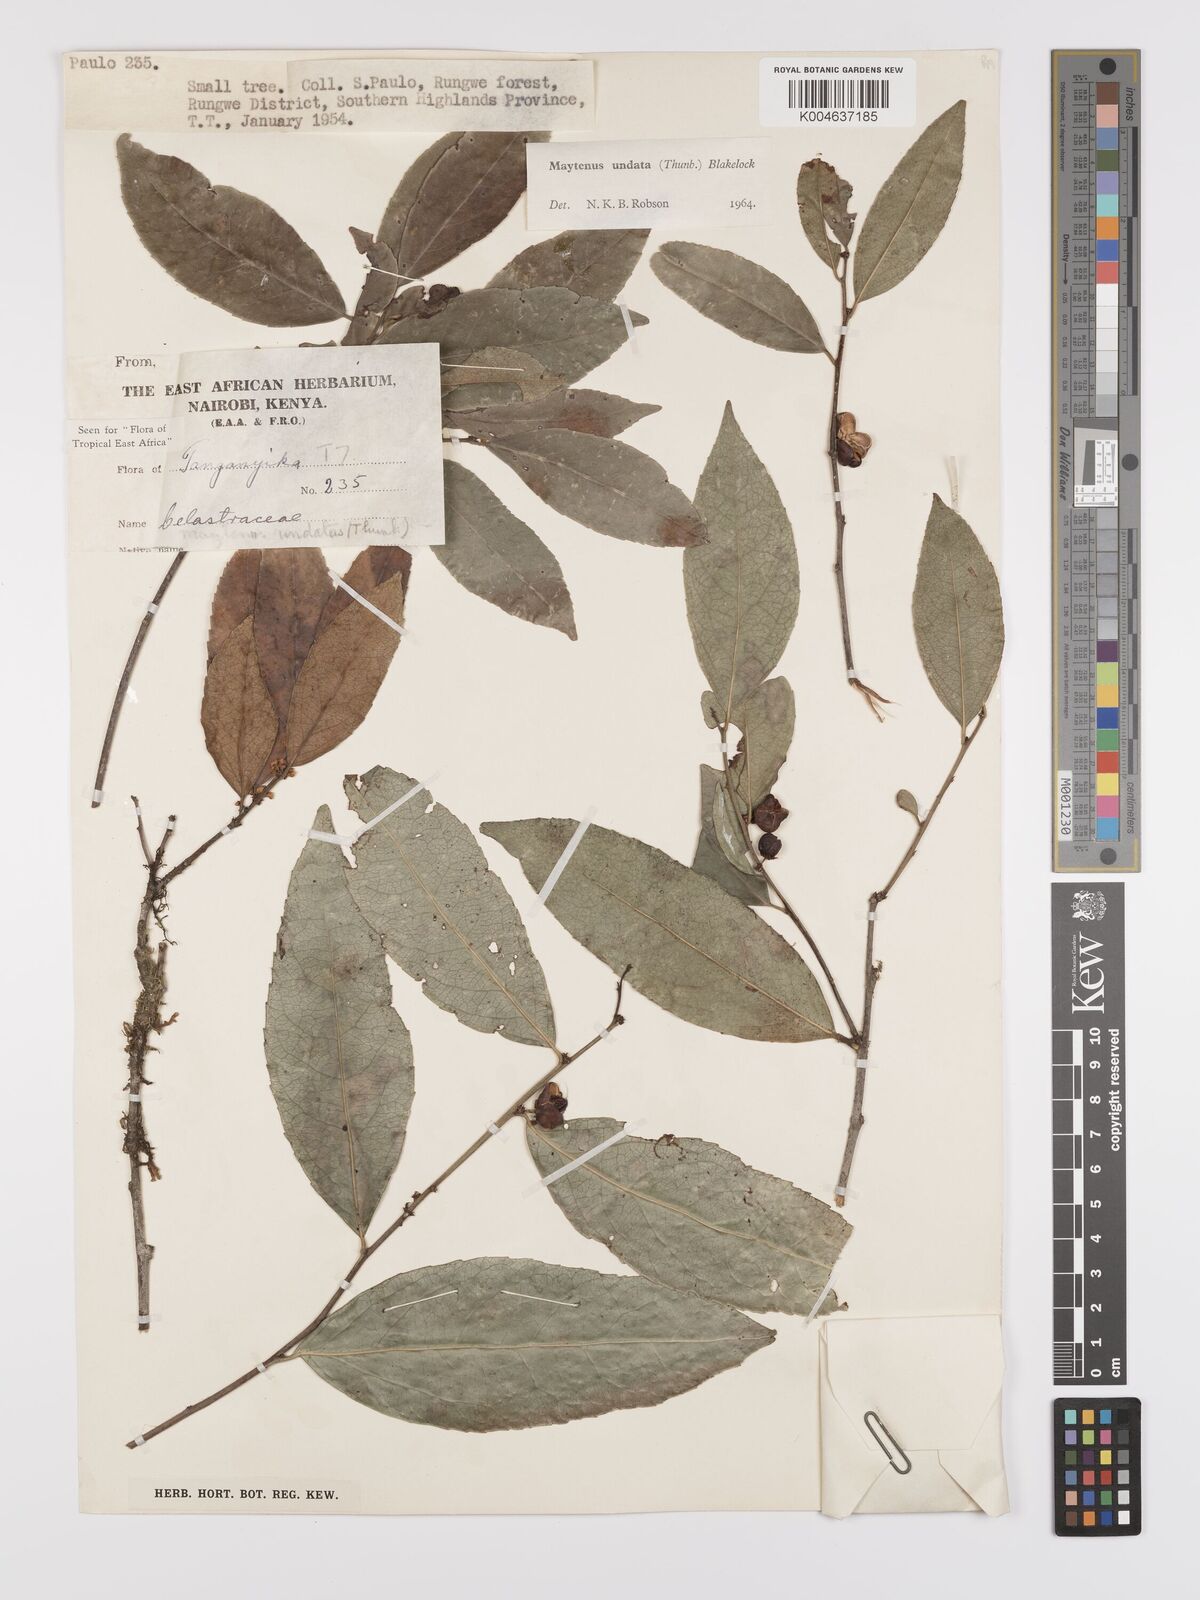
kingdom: Plantae
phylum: Tracheophyta
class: Magnoliopsida
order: Celastrales
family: Celastraceae
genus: Gymnosporia
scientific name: Gymnosporia undata
